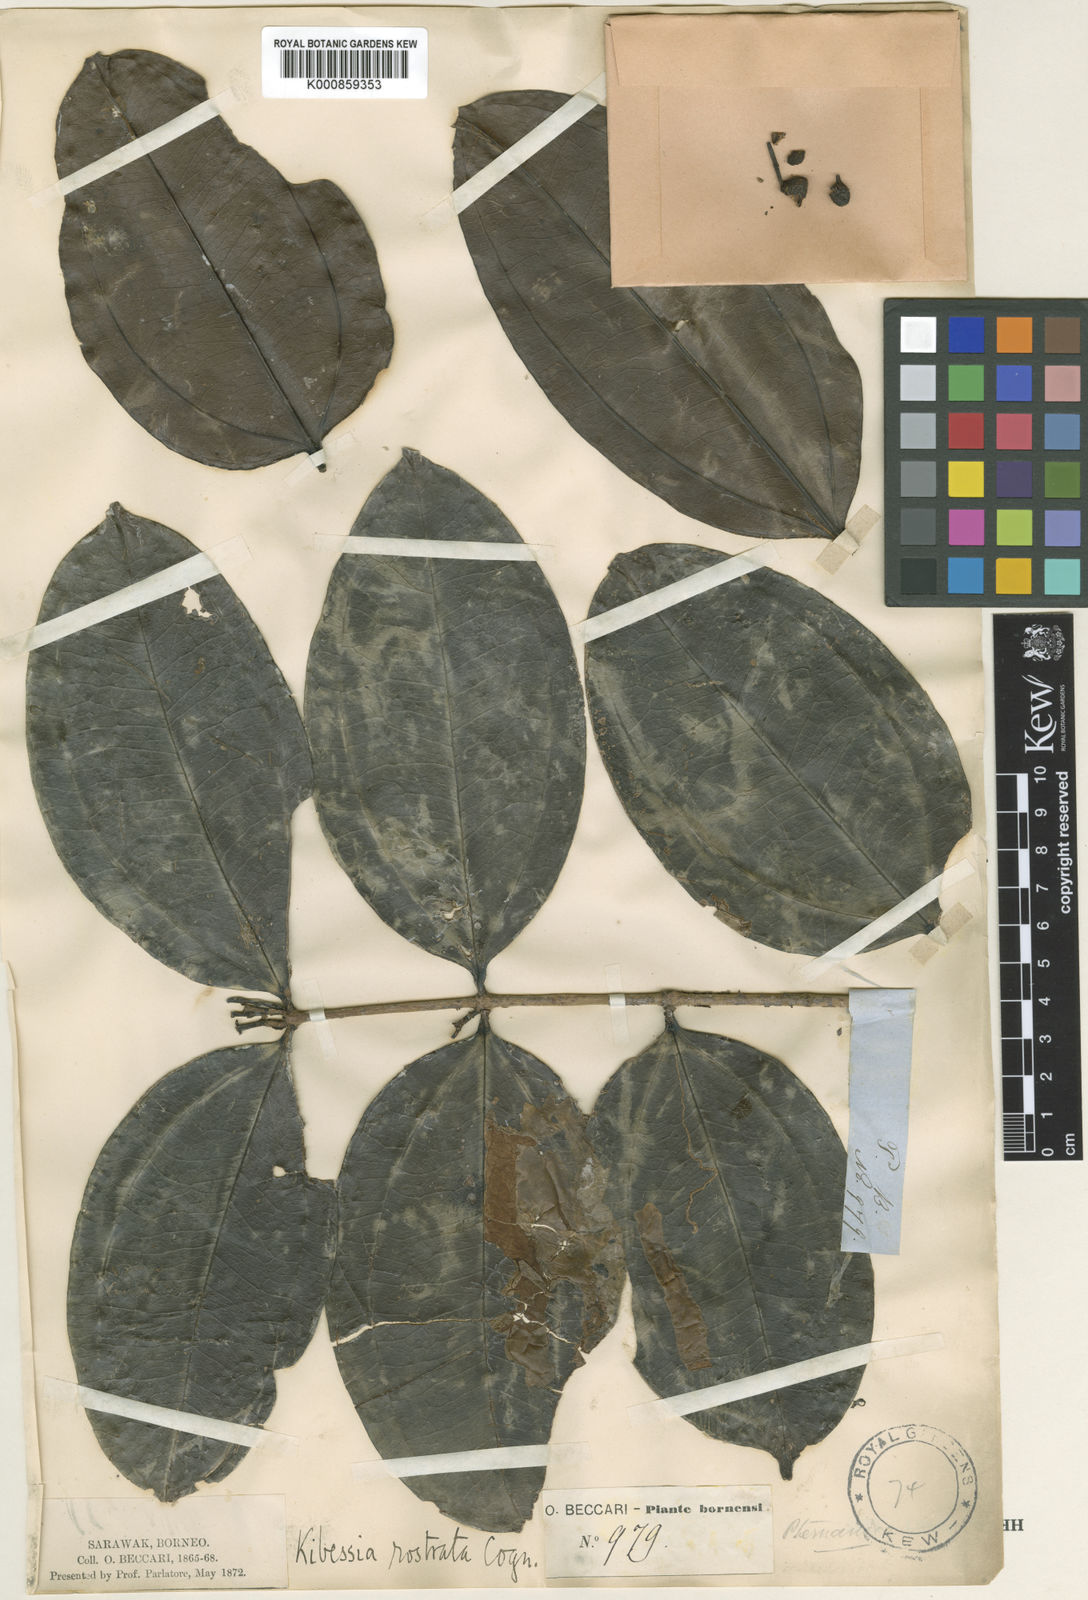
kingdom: Plantae
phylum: Tracheophyta
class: Magnoliopsida
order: Myrtales
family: Melastomataceae
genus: Pternandra
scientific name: Pternandra rostrata
